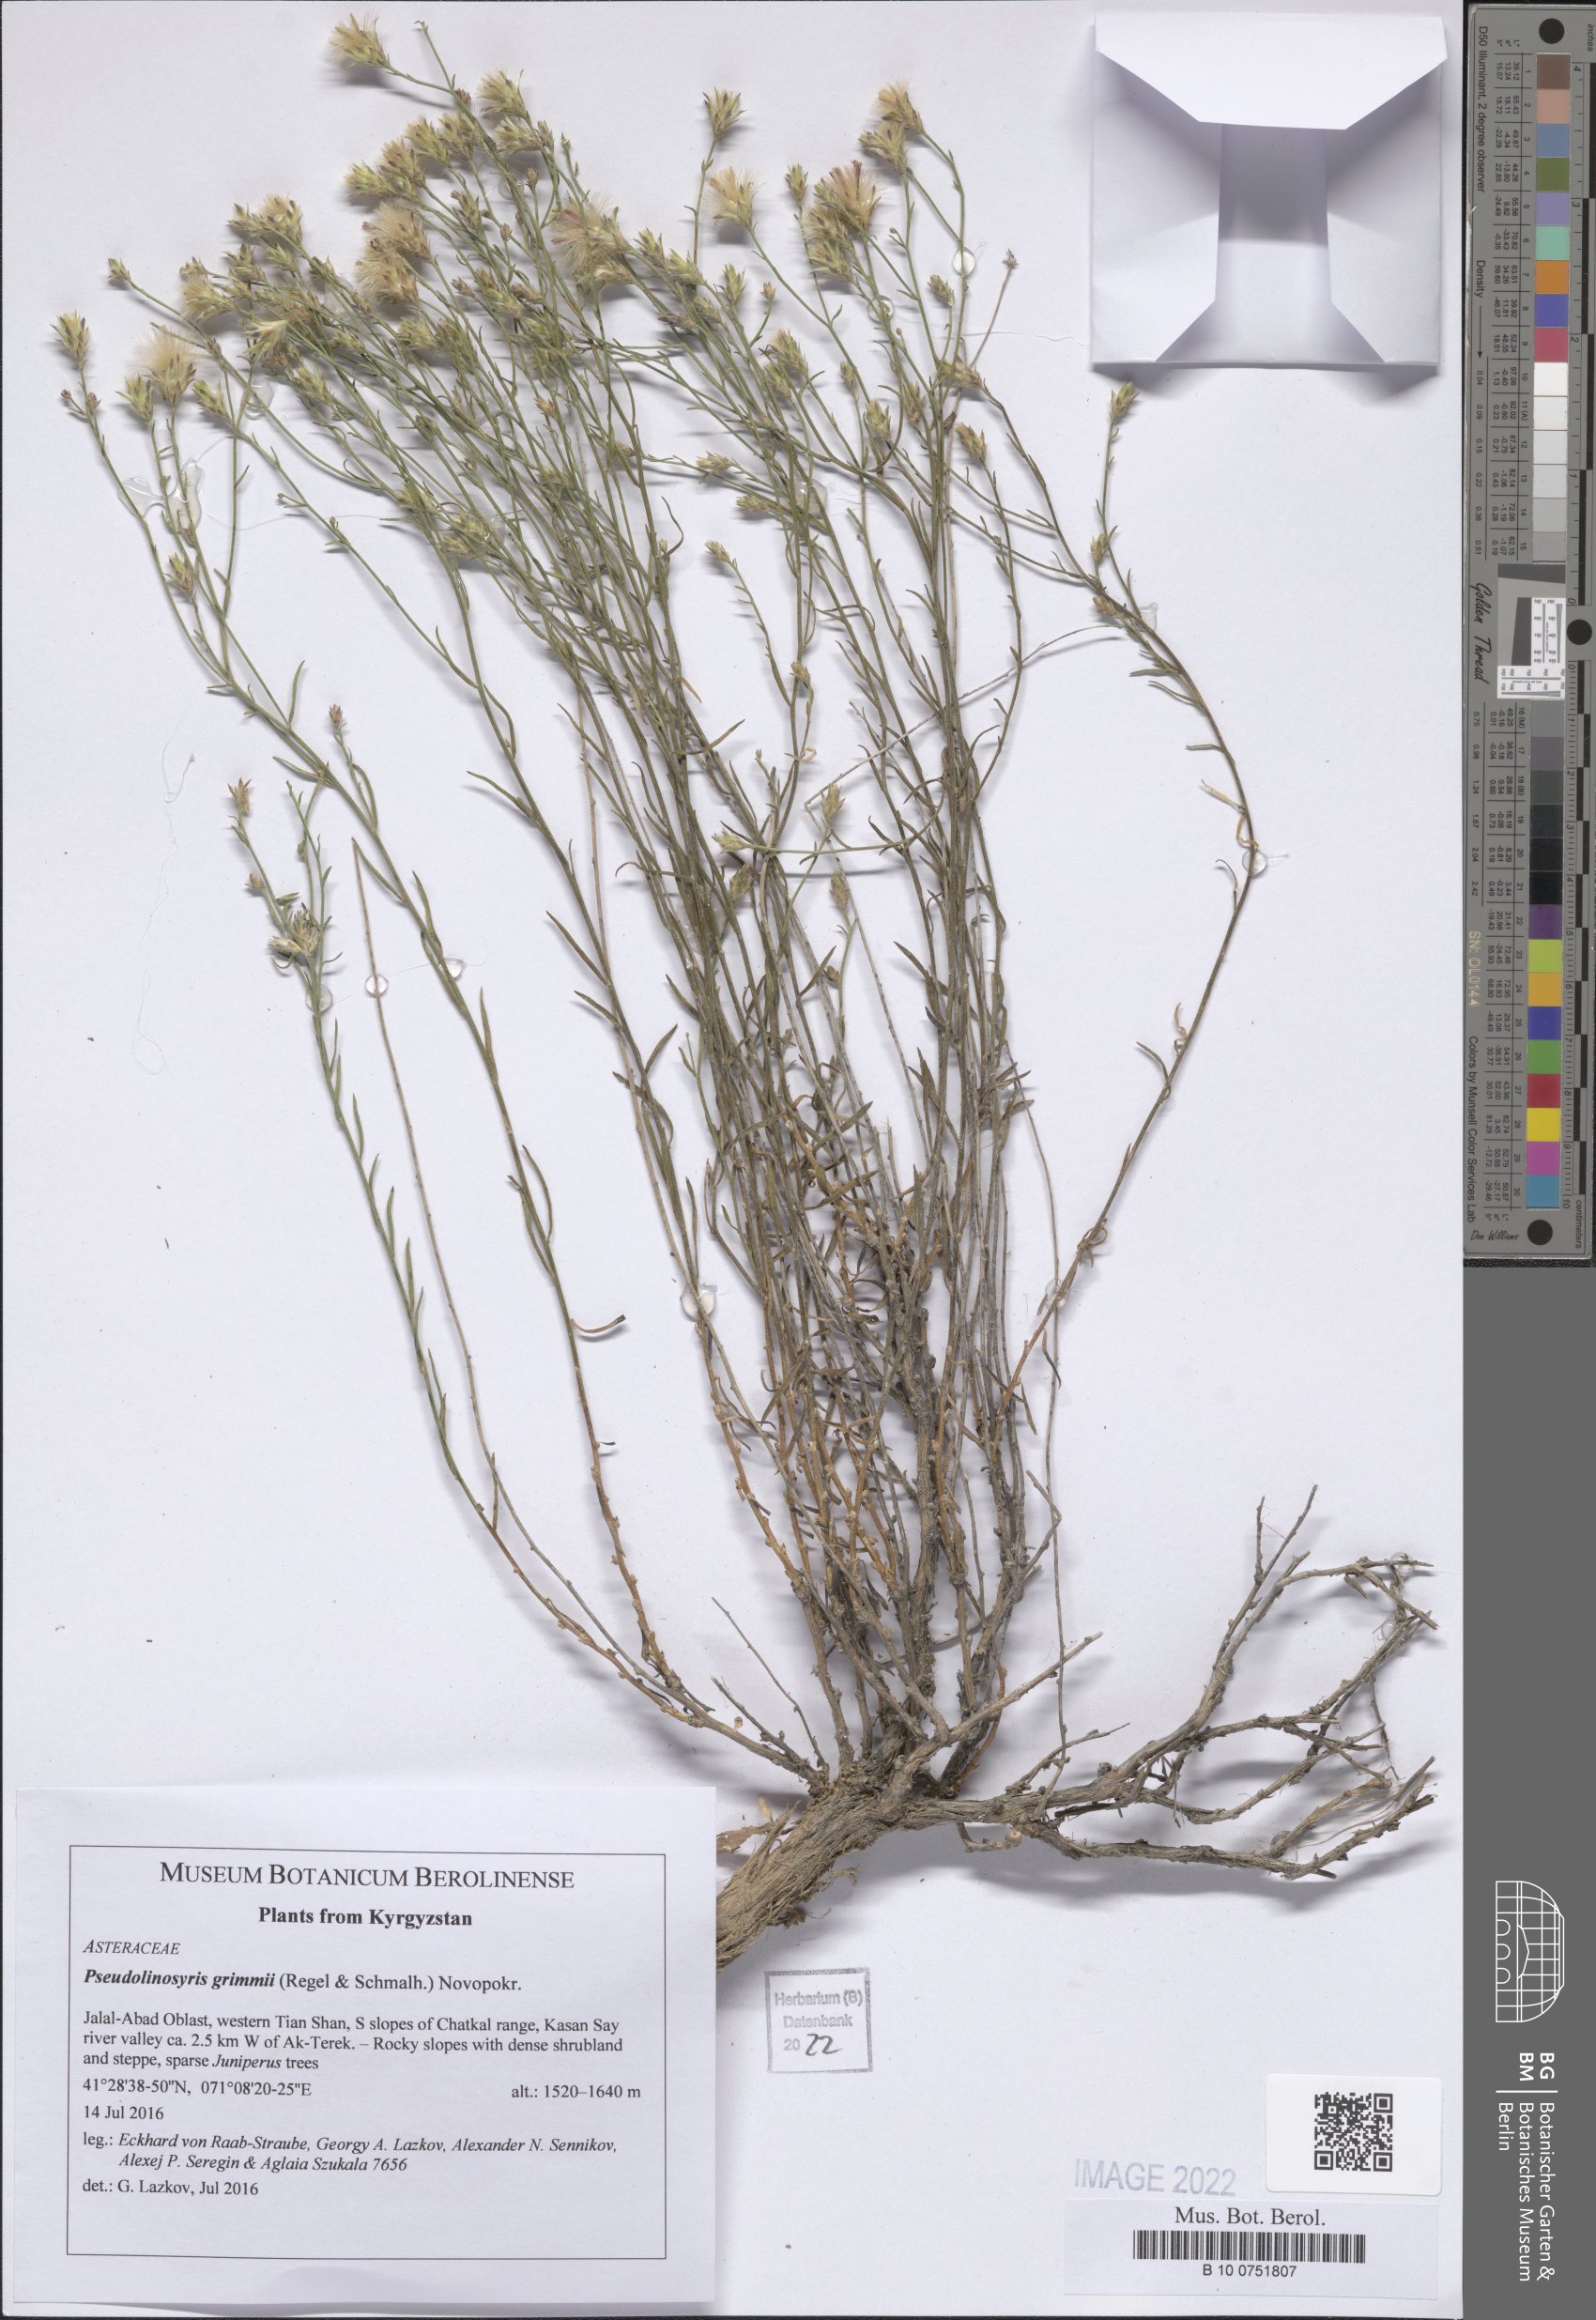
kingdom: Plantae
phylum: Tracheophyta
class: Magnoliopsida
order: Asterales
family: Asteraceae
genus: Galatella
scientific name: Galatella grimmii
